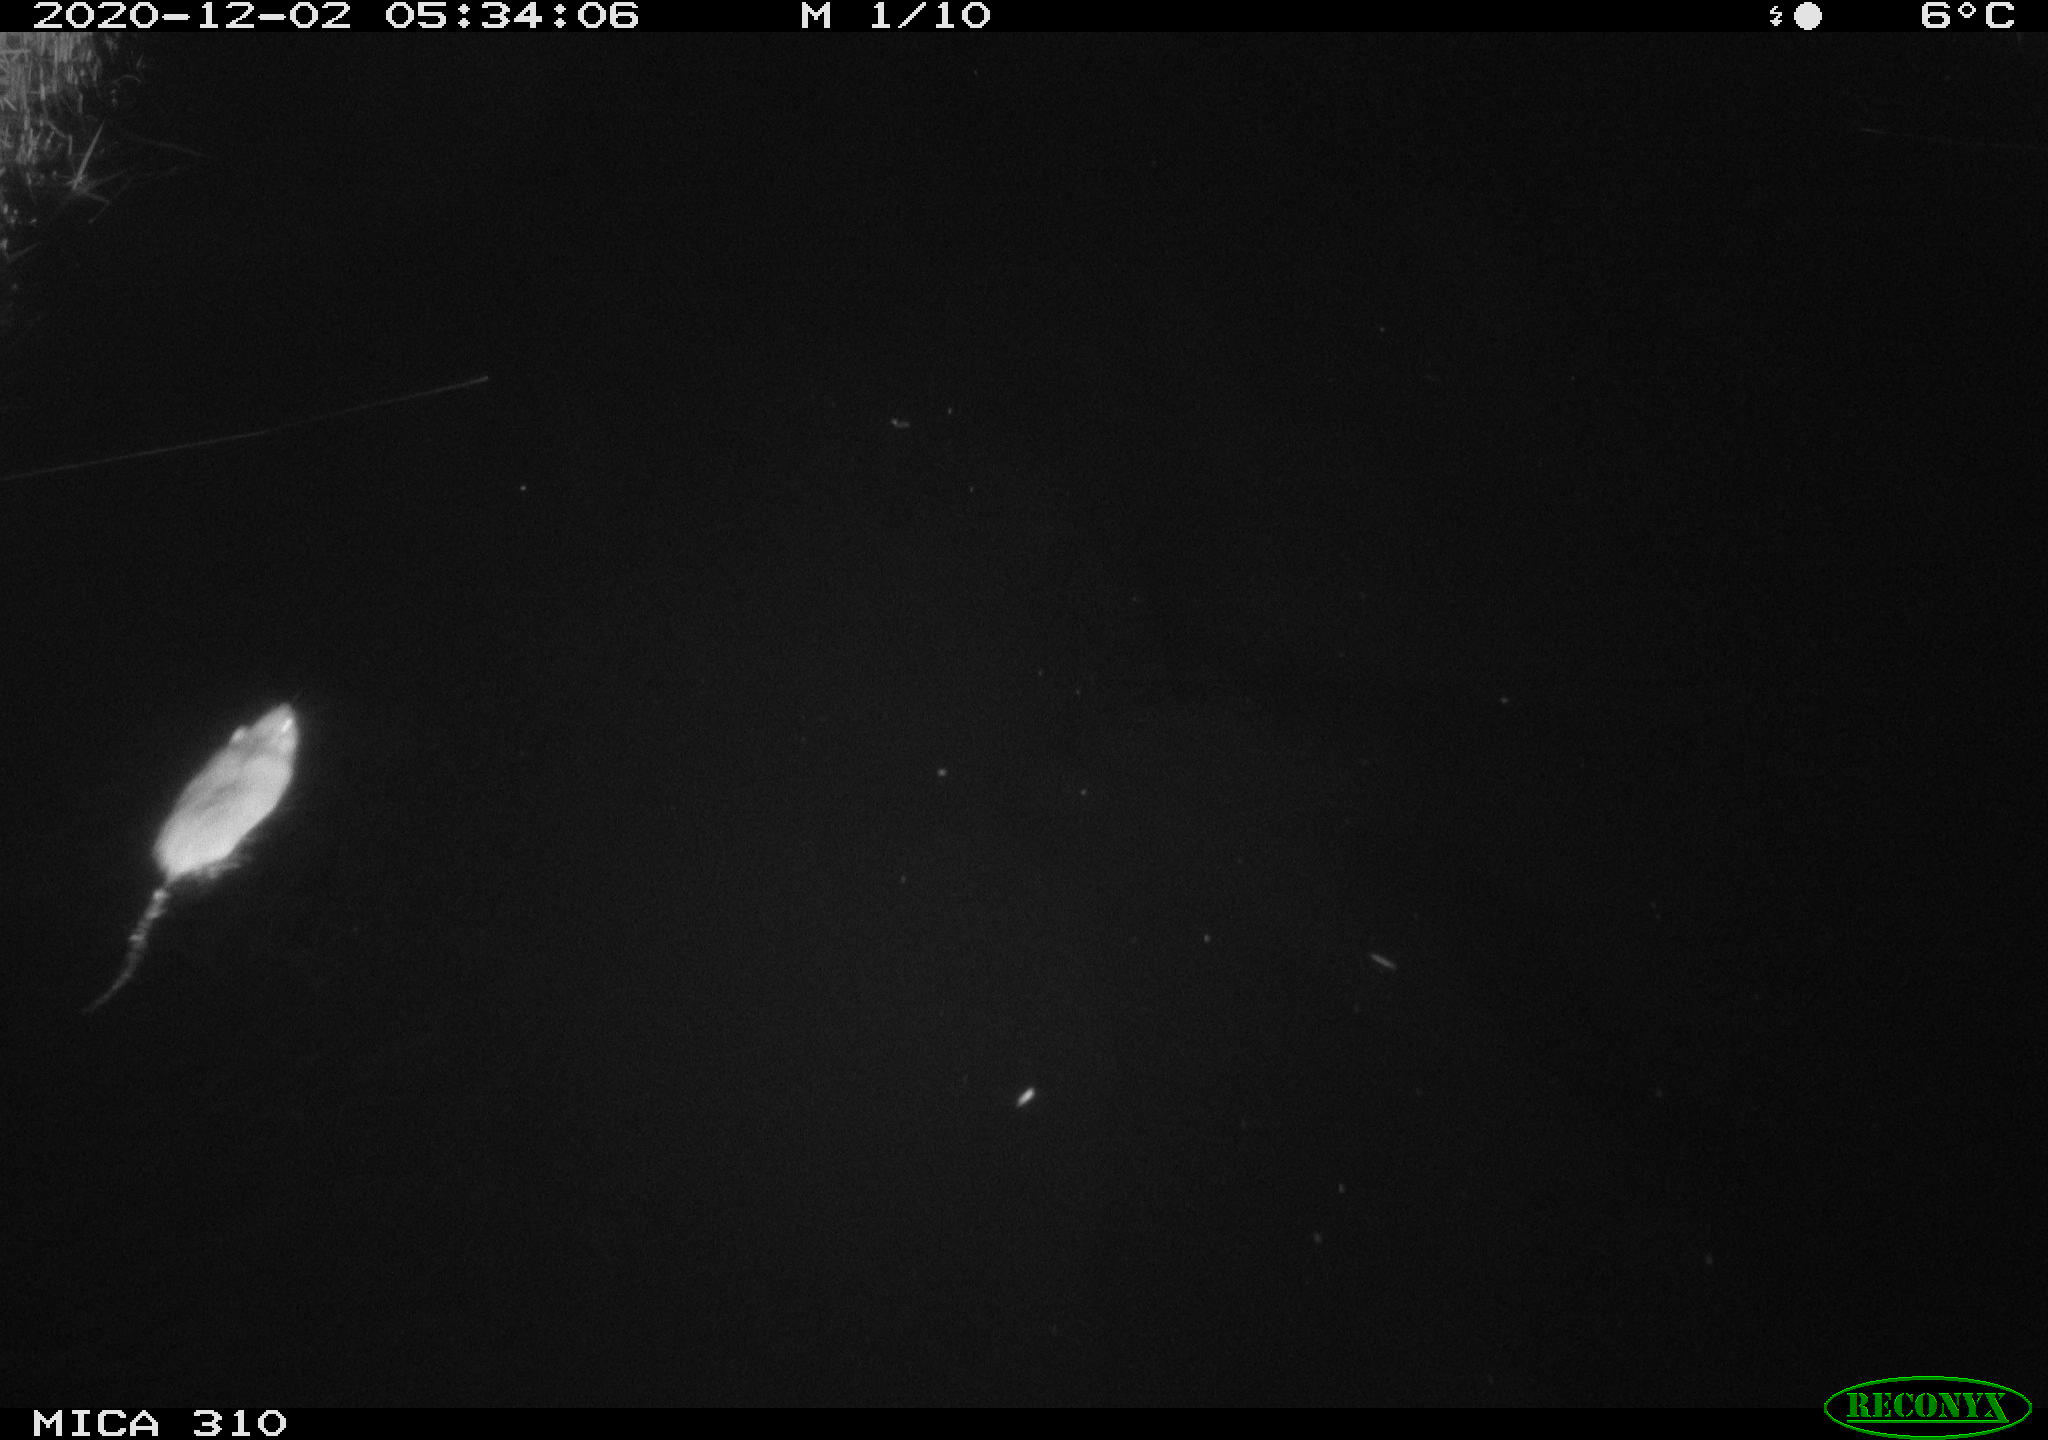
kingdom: Animalia
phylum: Chordata
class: Mammalia
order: Rodentia
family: Muridae
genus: Rattus
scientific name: Rattus norvegicus
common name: Brown rat
